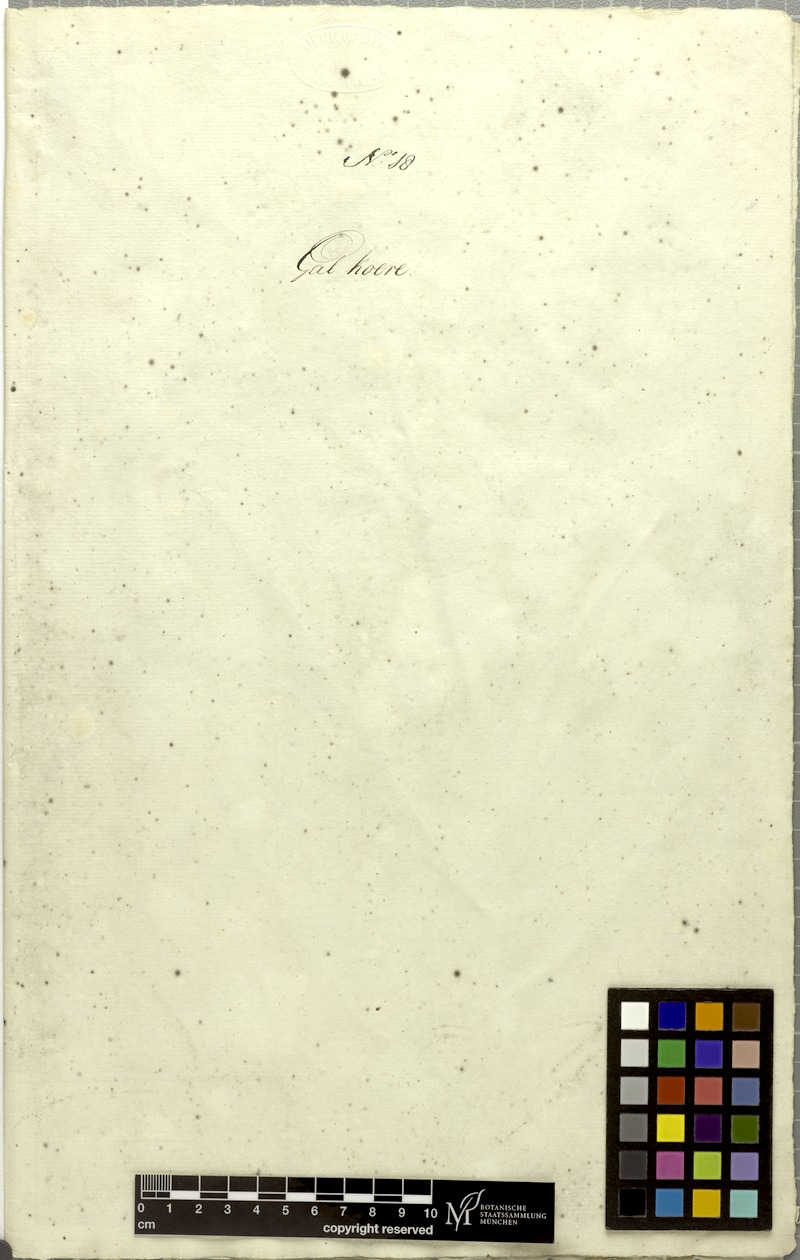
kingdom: Plantae
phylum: Tracheophyta
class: Magnoliopsida
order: Malvales
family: Malvaceae
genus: Melochia
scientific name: Melochia corchorifolia
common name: Chocolateweed
